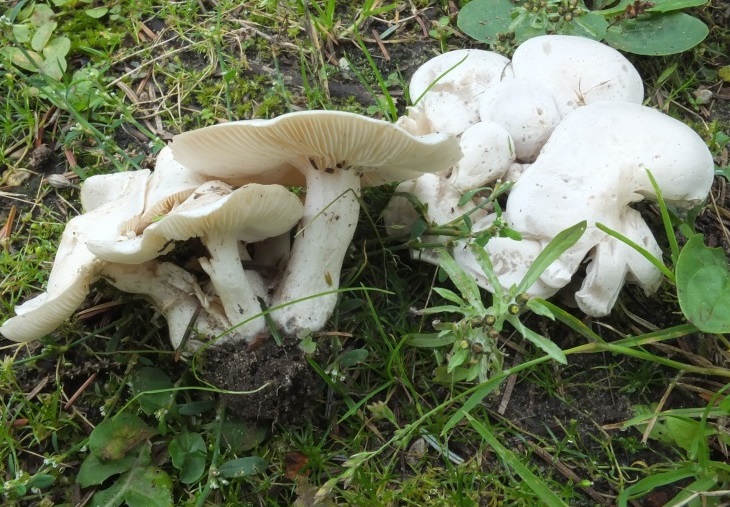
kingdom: Fungi
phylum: Basidiomycota
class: Agaricomycetes
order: Agaricales
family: Tricholomataceae
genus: Leucocybe
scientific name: Leucocybe connata
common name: knippe-tragthat
